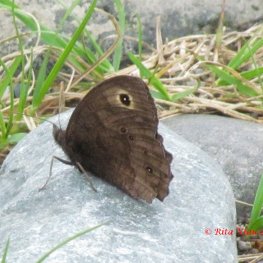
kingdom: Animalia
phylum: Arthropoda
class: Insecta
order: Lepidoptera
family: Nymphalidae
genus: Cercyonis
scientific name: Cercyonis pegala
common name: Common Wood-Nymph
